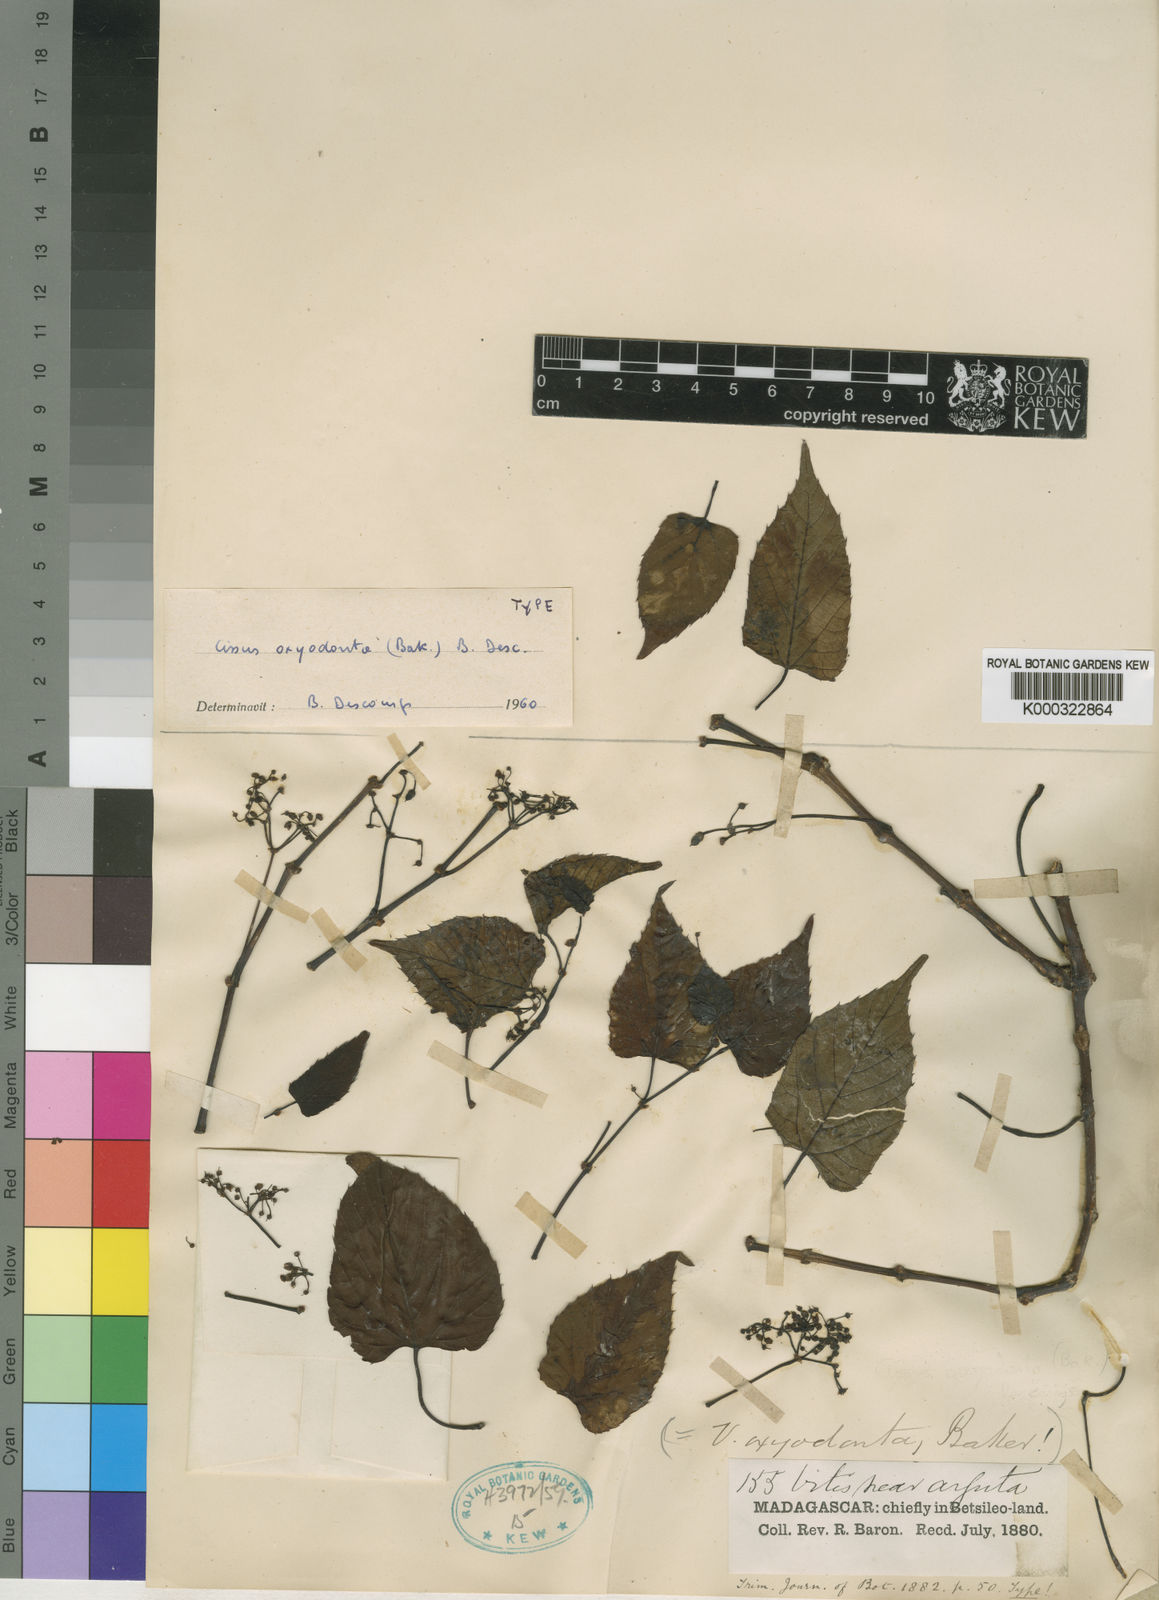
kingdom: Plantae
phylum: Tracheophyta
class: Magnoliopsida
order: Vitales
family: Vitaceae
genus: Cissus
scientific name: Cissus oxyodonta
